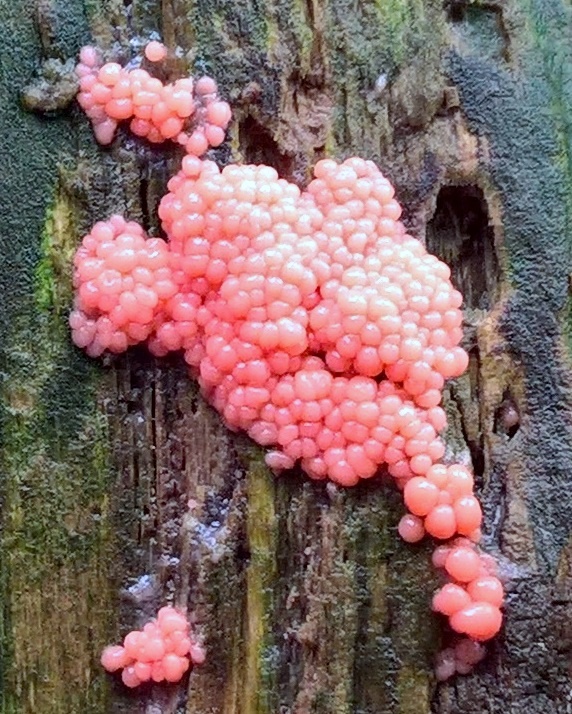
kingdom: Protozoa
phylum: Mycetozoa
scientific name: Mycetozoa
